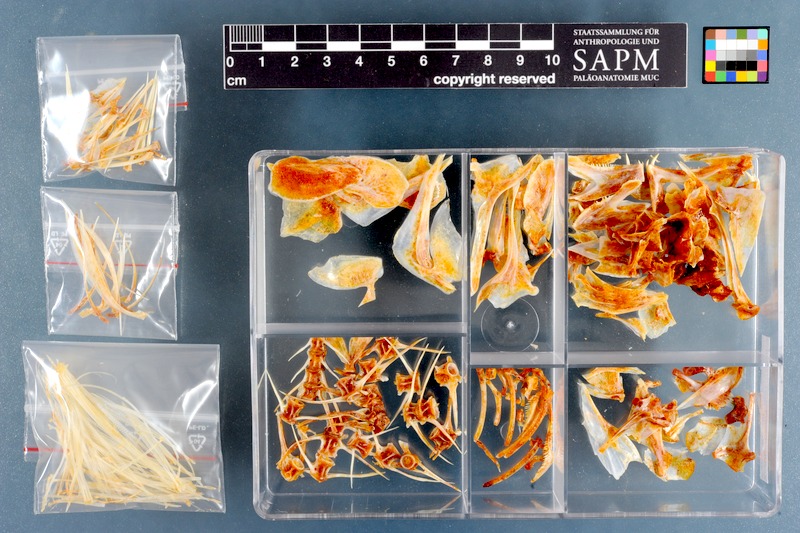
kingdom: Animalia
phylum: Chordata
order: Perciformes
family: Sparidae
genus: Argyrozona
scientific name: Argyrozona argyrozona
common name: Carpenter
